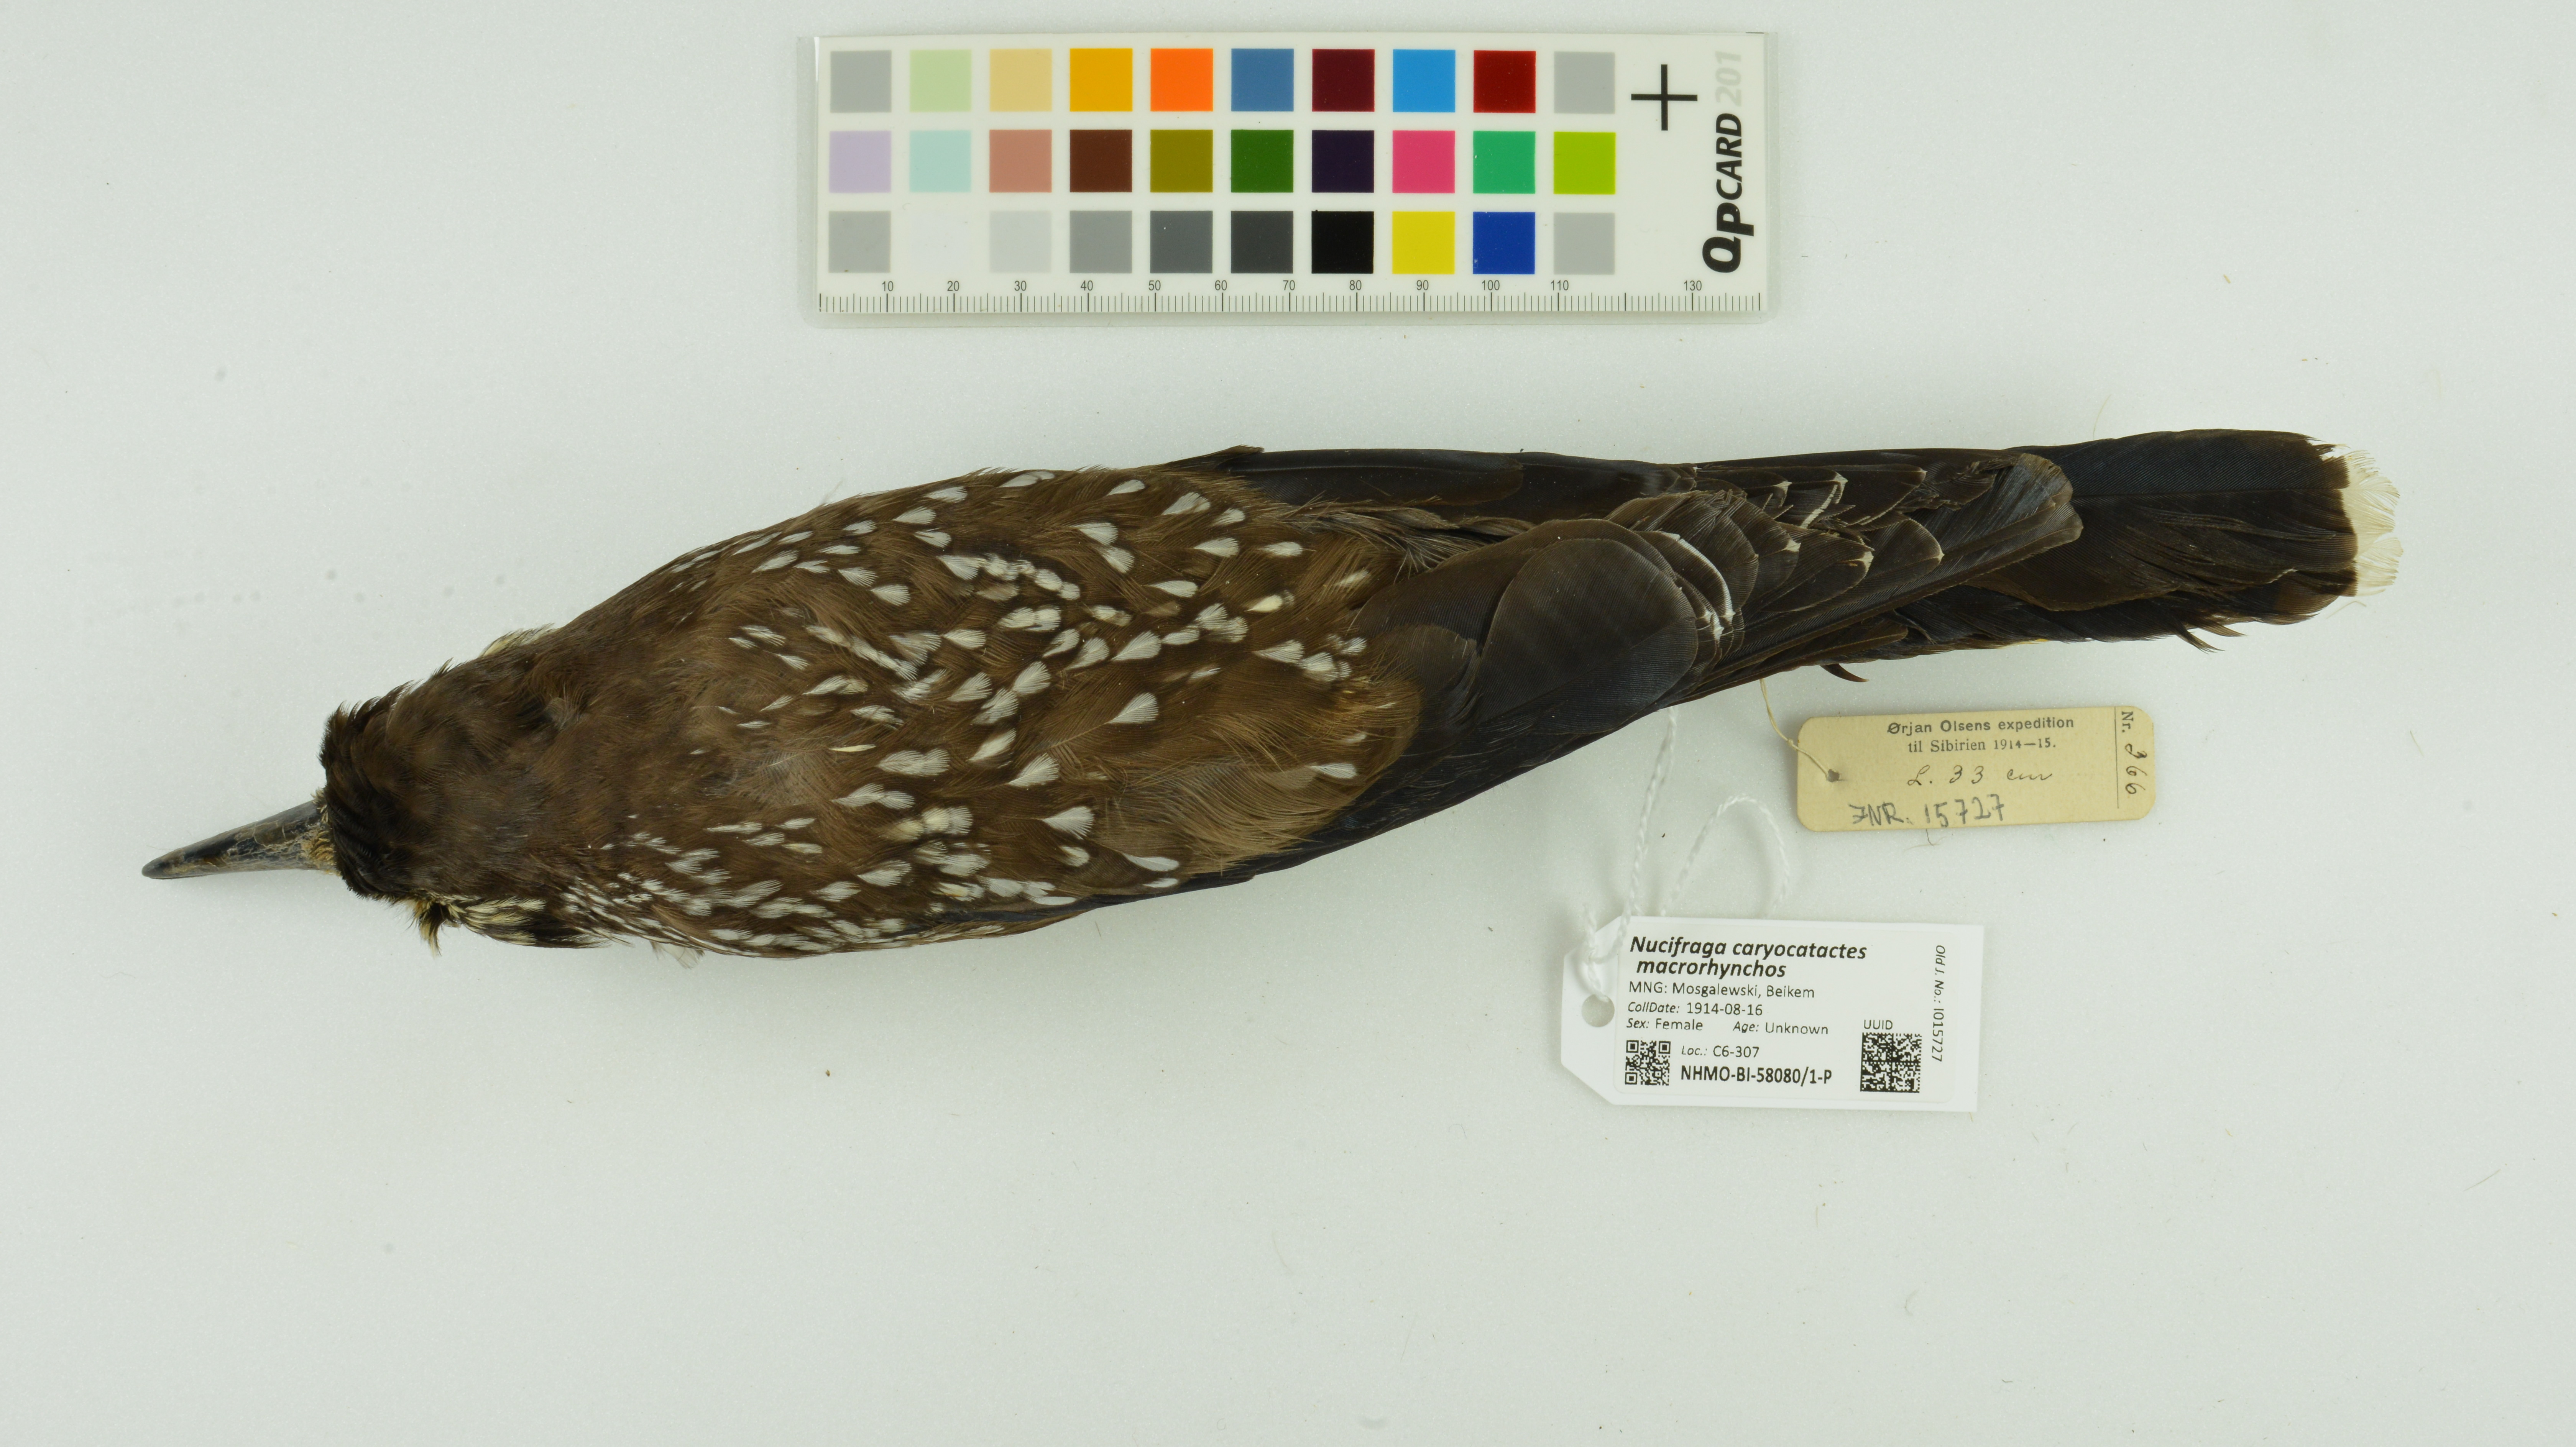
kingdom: Animalia
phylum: Chordata
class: Aves
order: Passeriformes
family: Corvidae
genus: Nucifraga
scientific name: Nucifraga caryocatactes
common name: Spotted nutcracker
